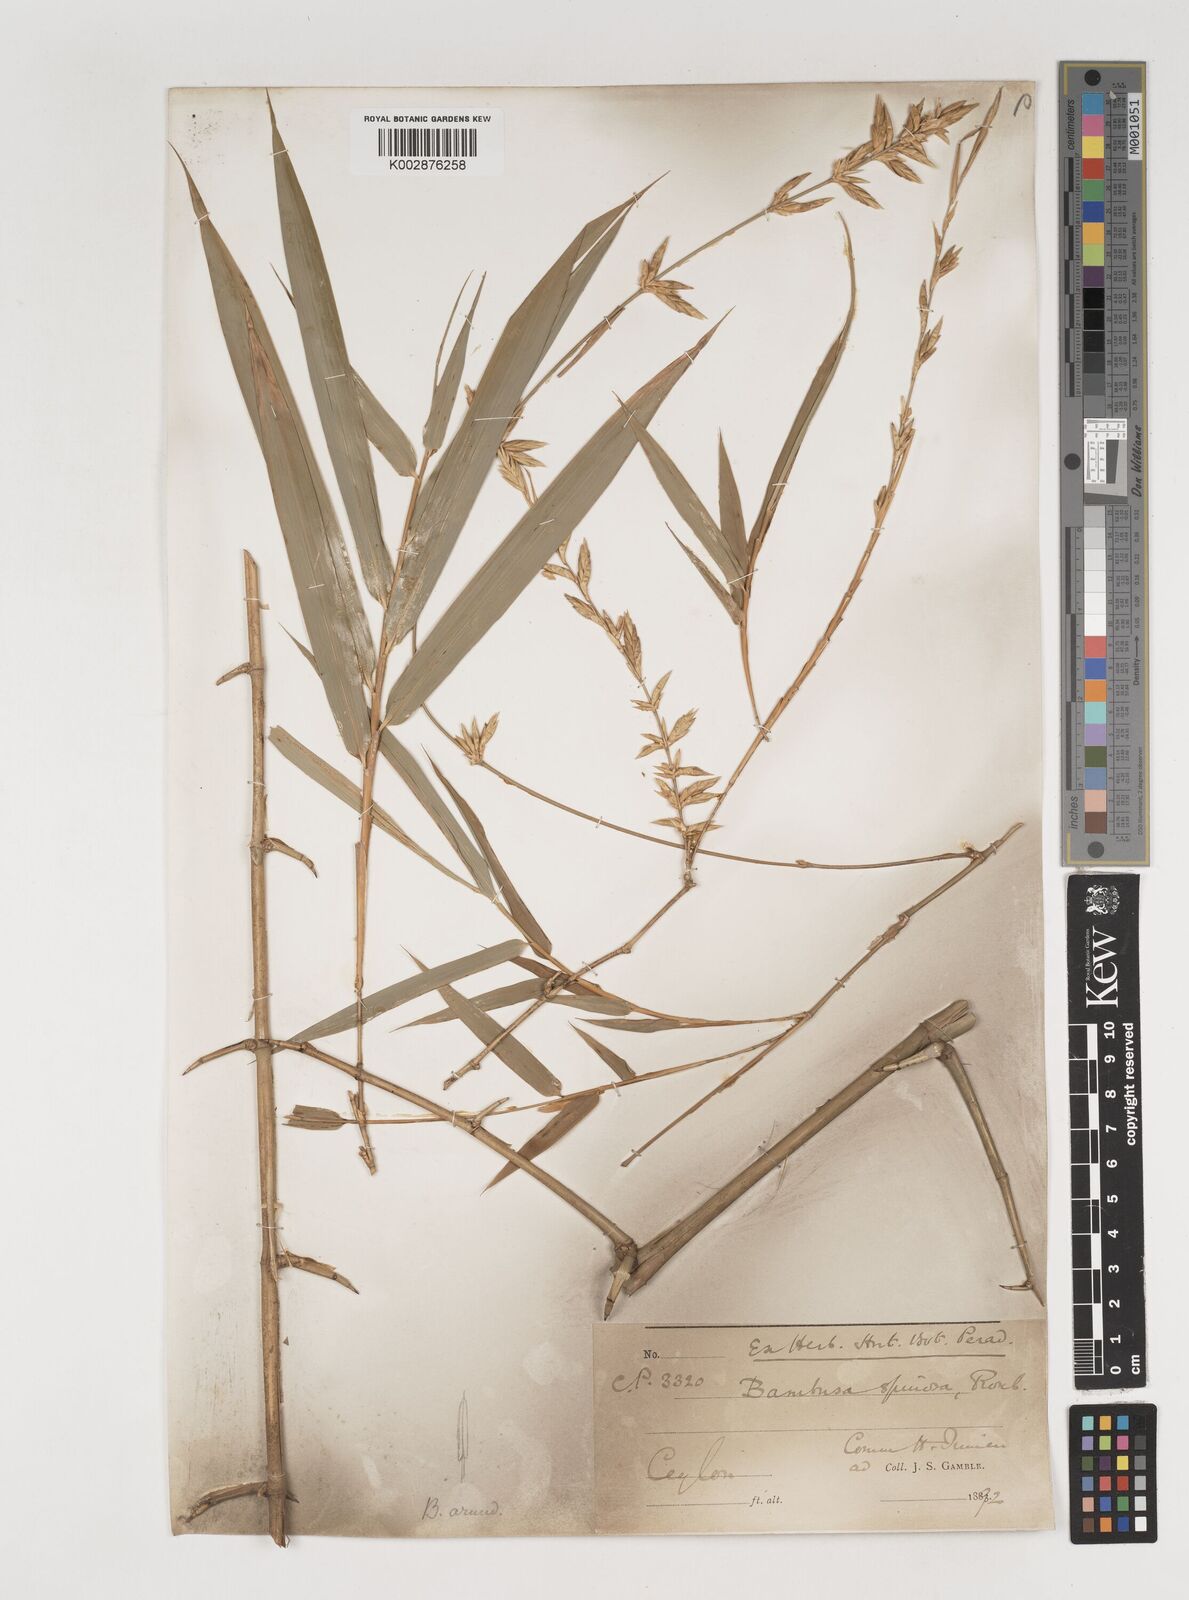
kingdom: Plantae
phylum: Tracheophyta
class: Liliopsida
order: Poales
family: Poaceae
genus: Bambusa
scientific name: Bambusa bambos
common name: Indian thorny bamboo
